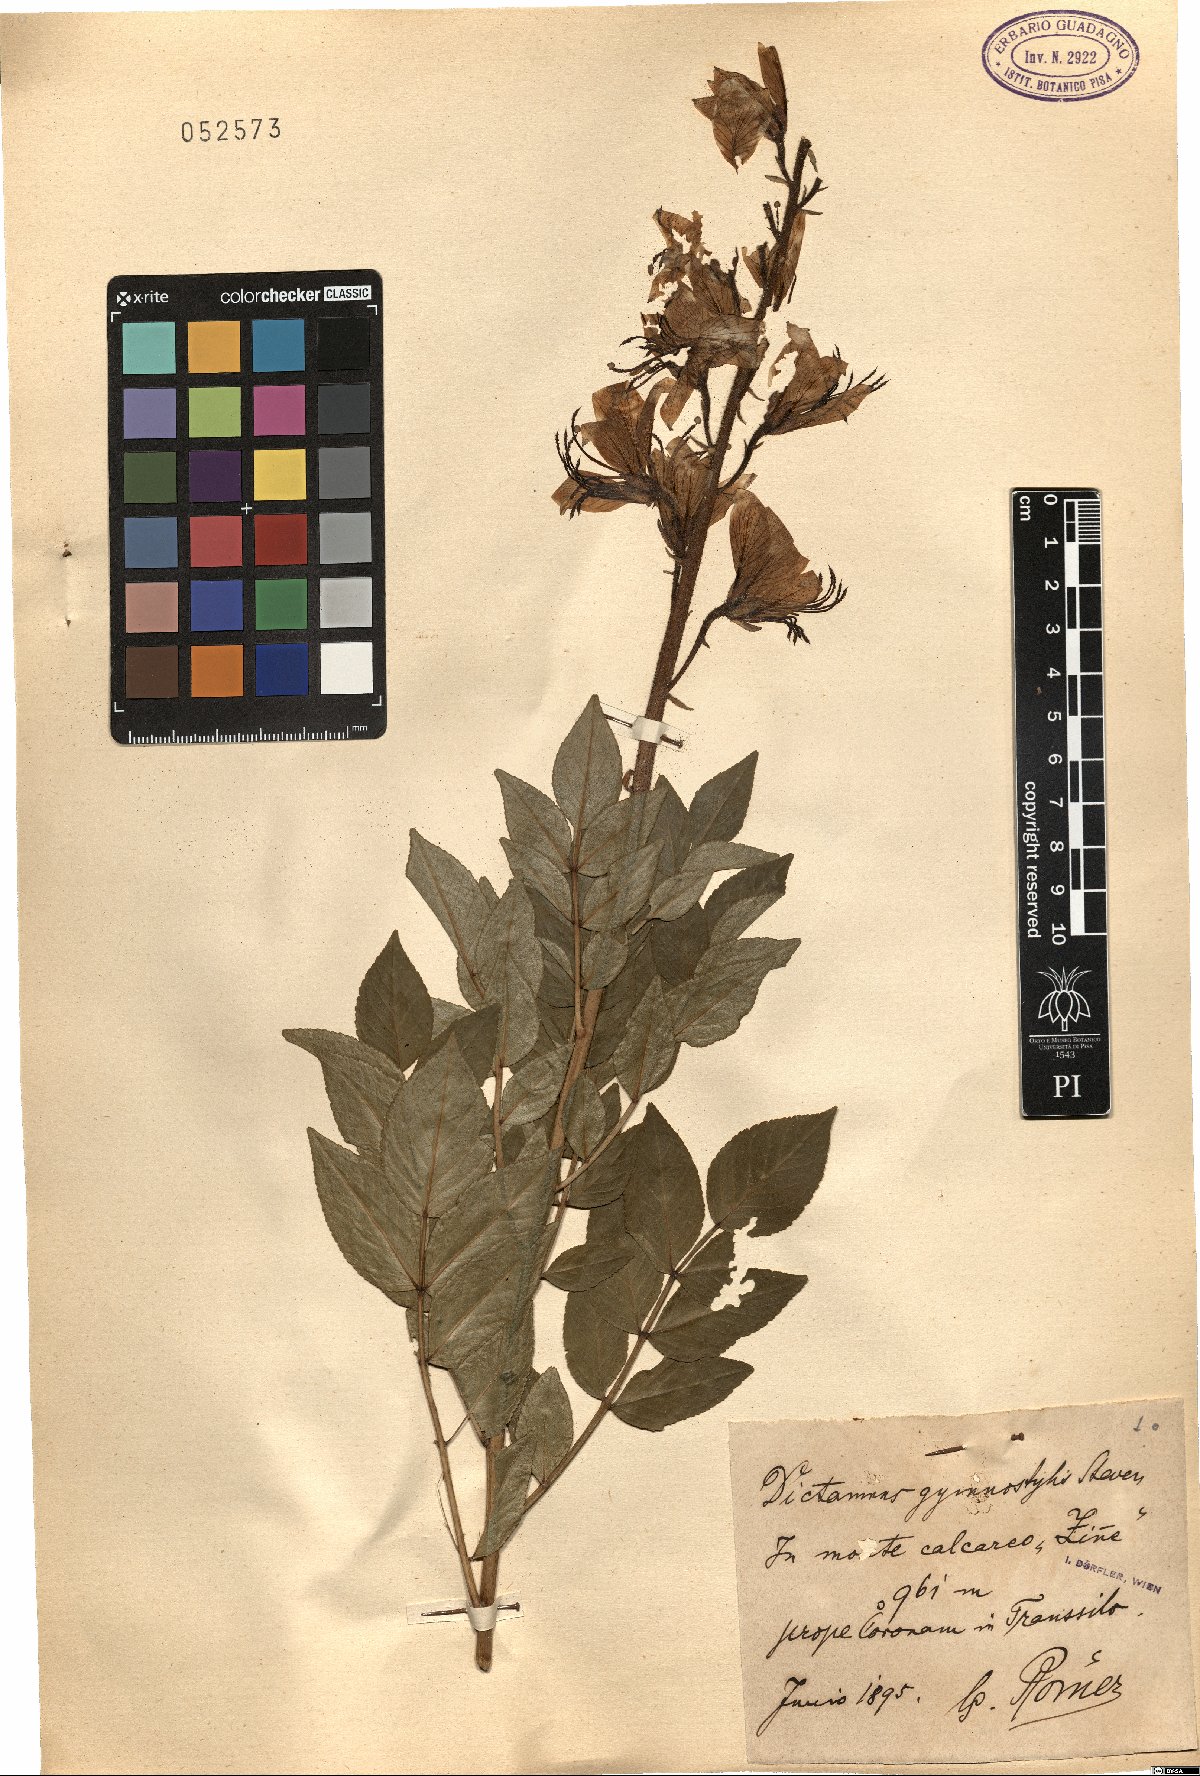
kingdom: Plantae
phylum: Tracheophyta
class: Magnoliopsida
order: Sapindales
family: Rutaceae
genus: Dictamnus
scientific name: Dictamnus albus
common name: Gasplant
